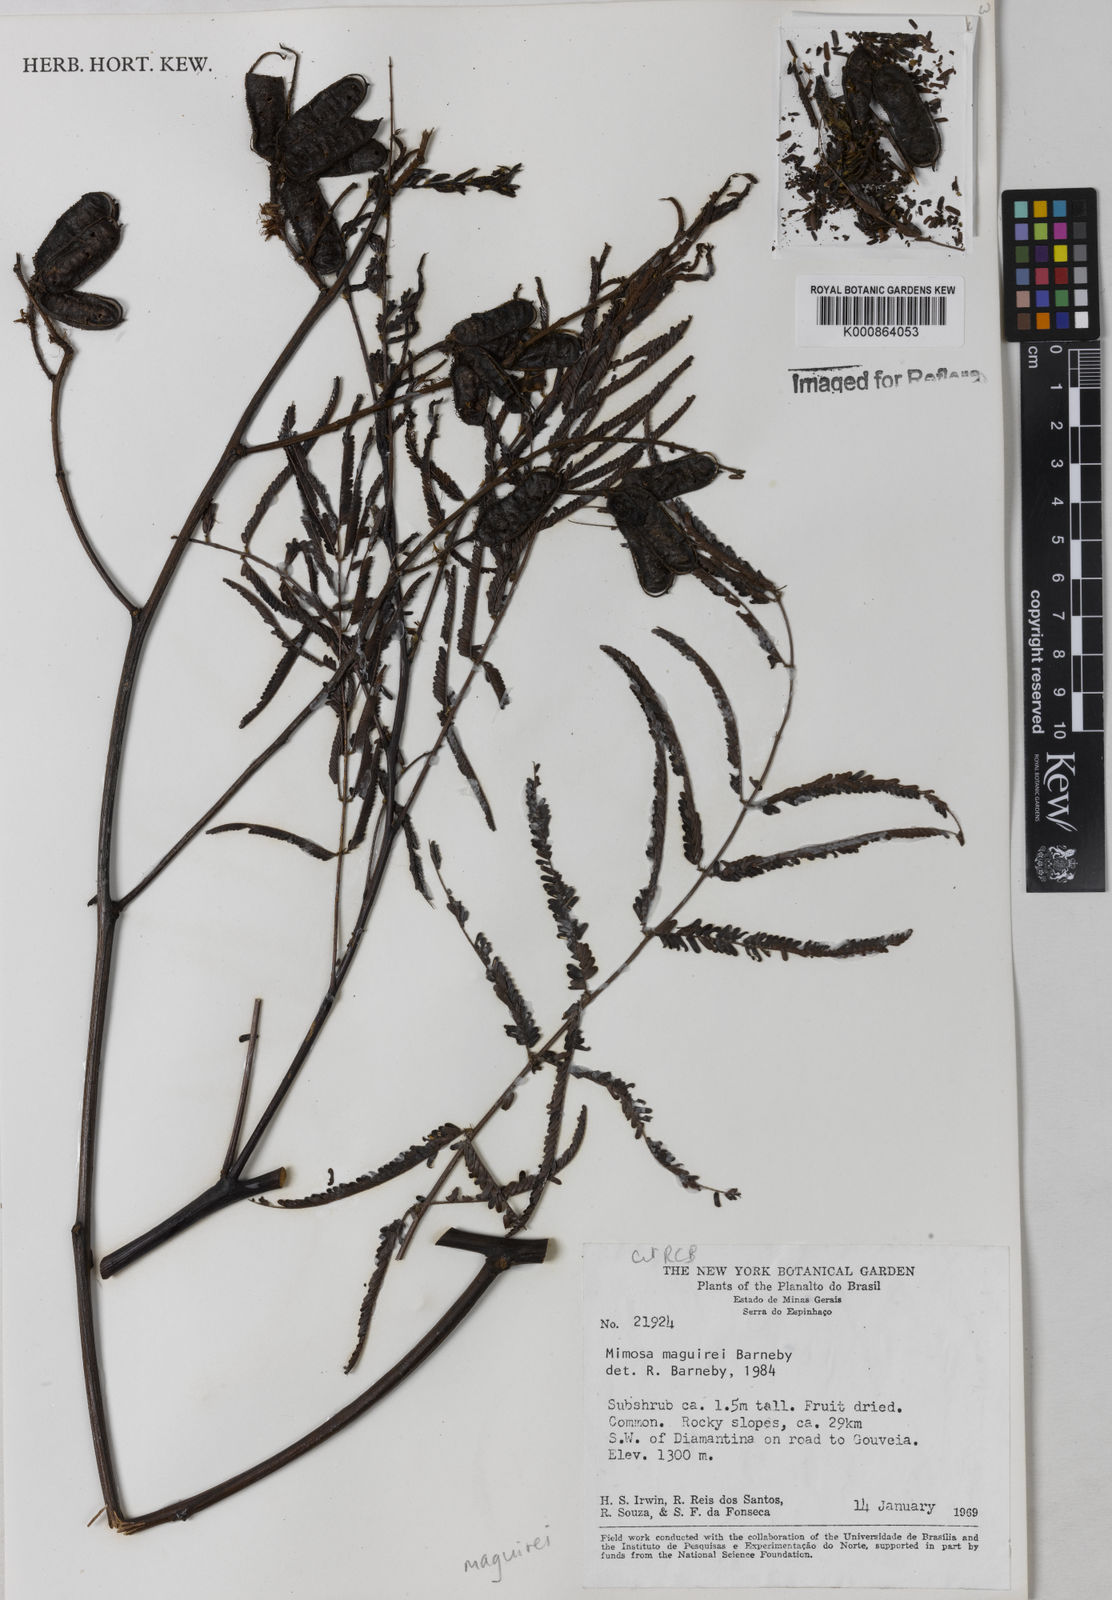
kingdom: Plantae
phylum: Tracheophyta
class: Magnoliopsida
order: Fabales
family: Fabaceae
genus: Mimosa
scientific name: Mimosa maguirei
